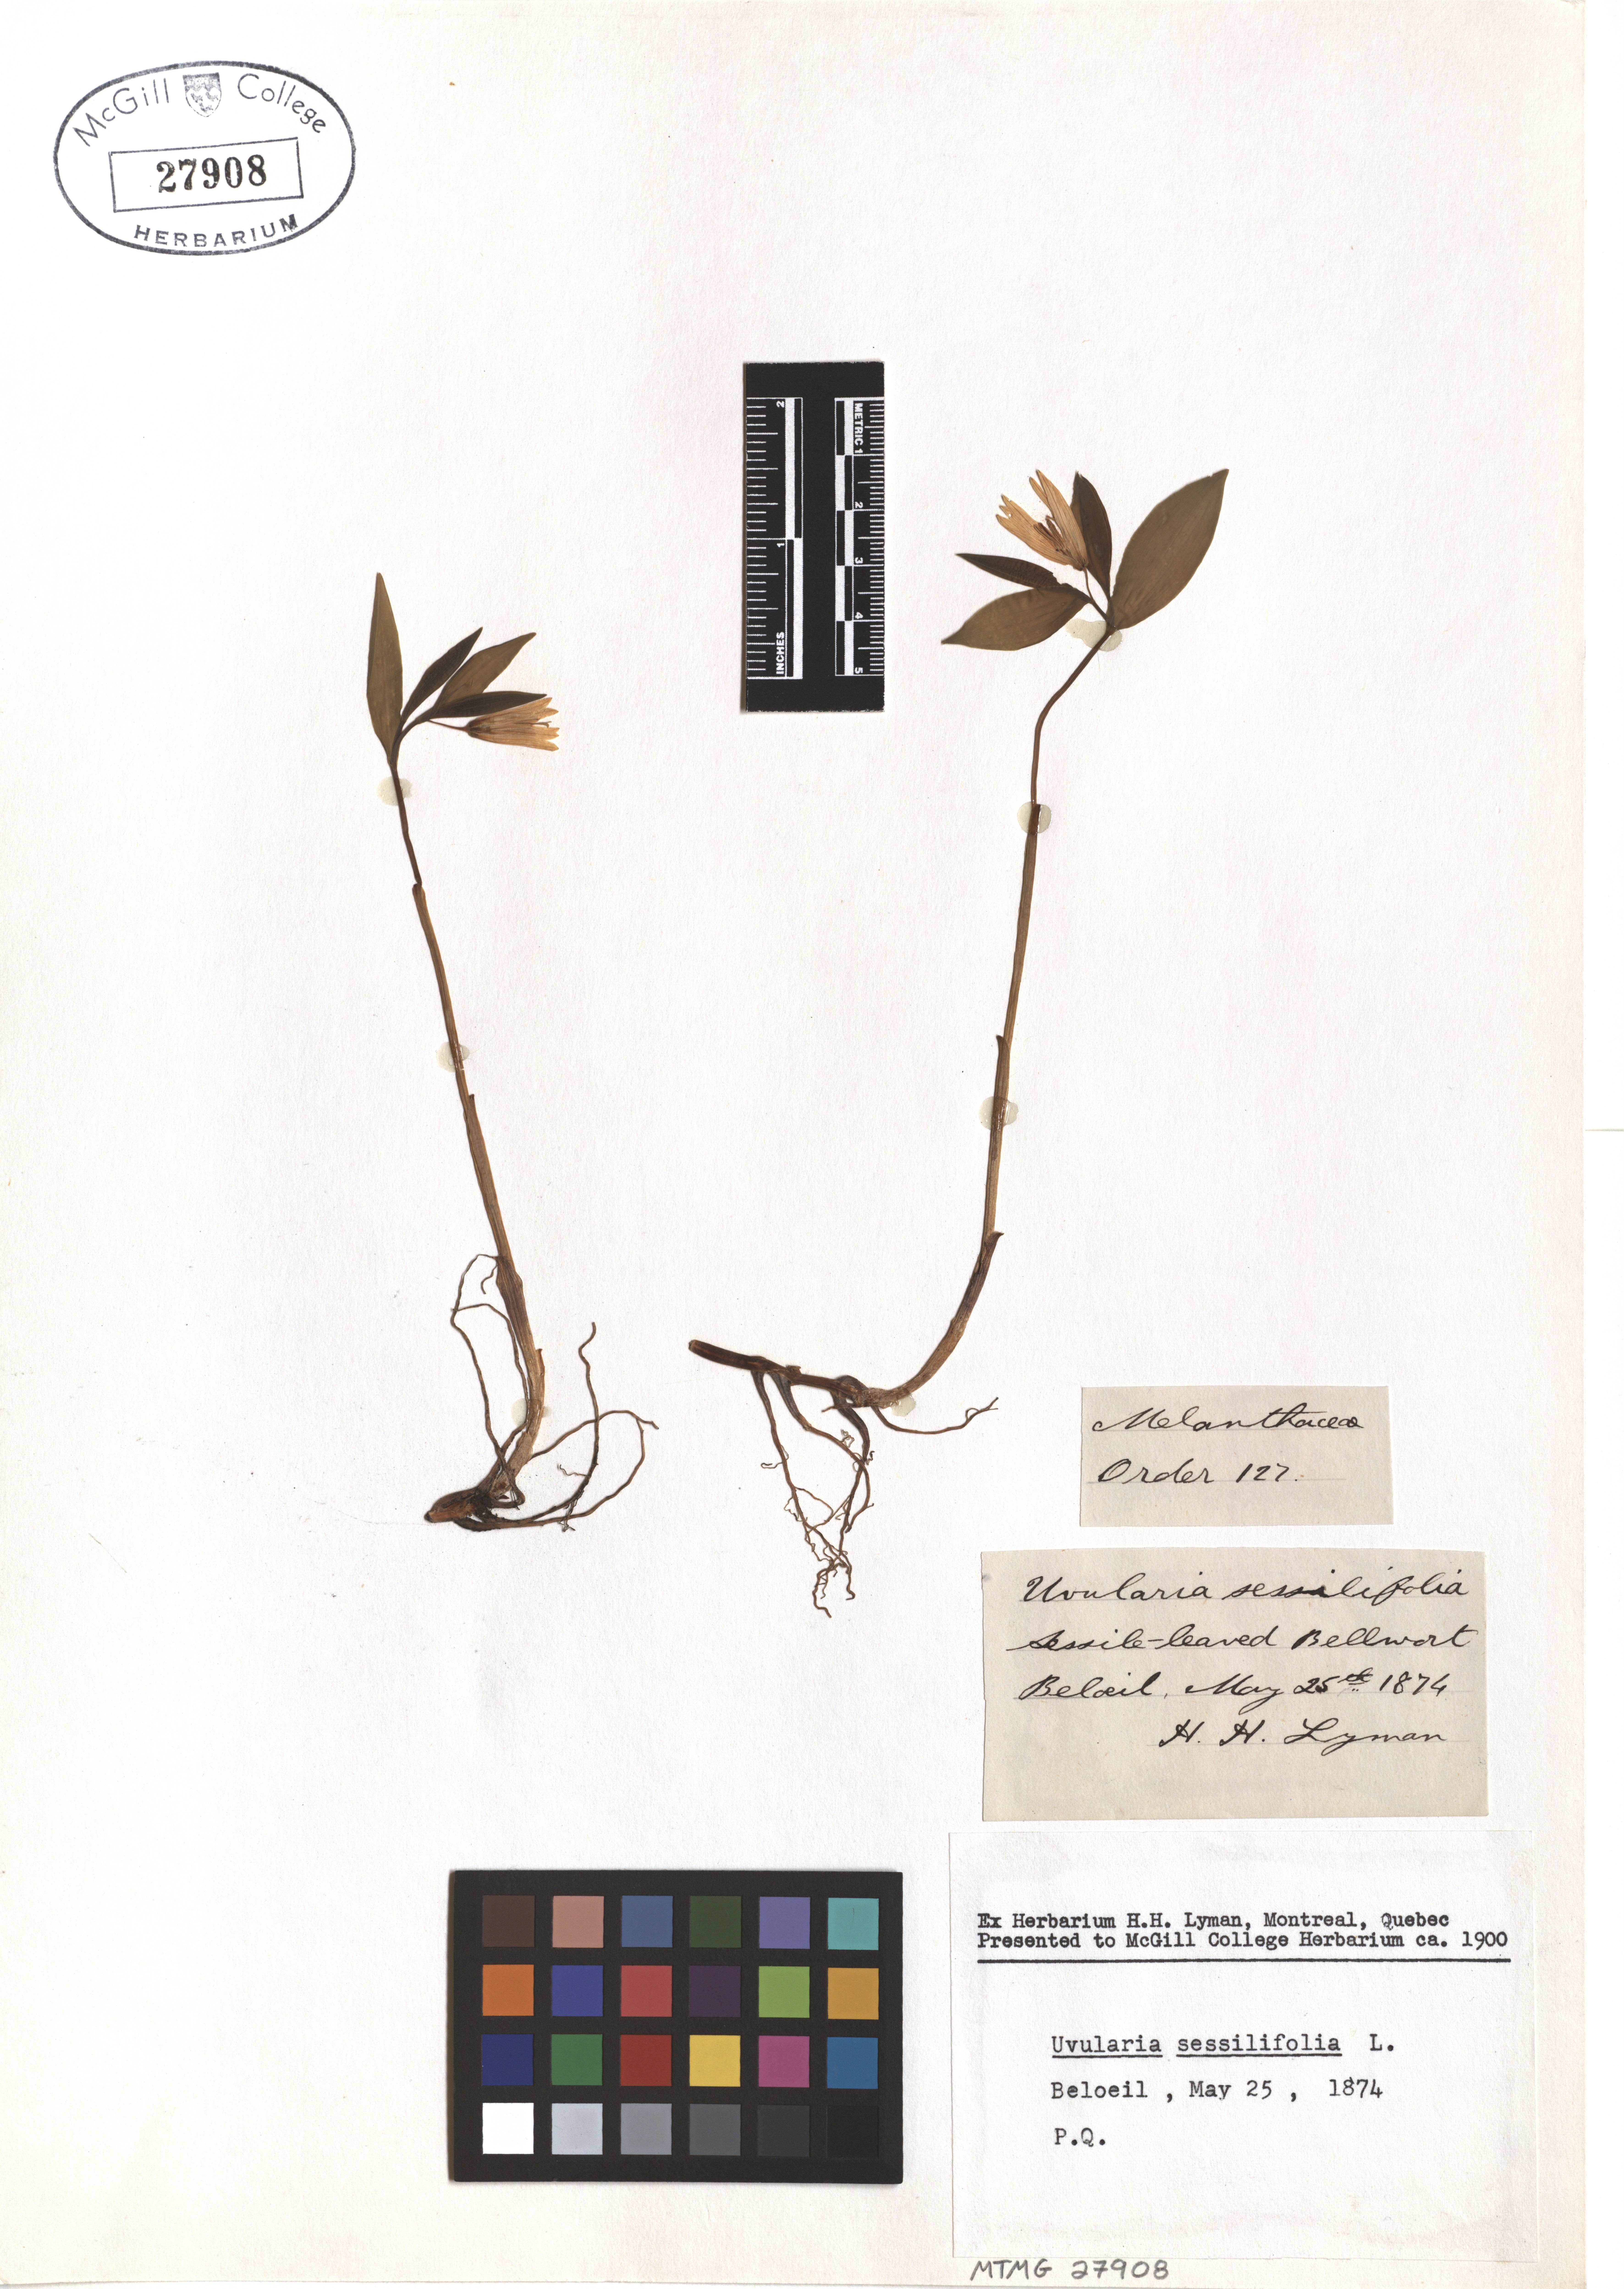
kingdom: Plantae
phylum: Tracheophyta
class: Liliopsida
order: Liliales
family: Colchicaceae
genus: Uvularia
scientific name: Uvularia sessilifolia
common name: Straw-lily
